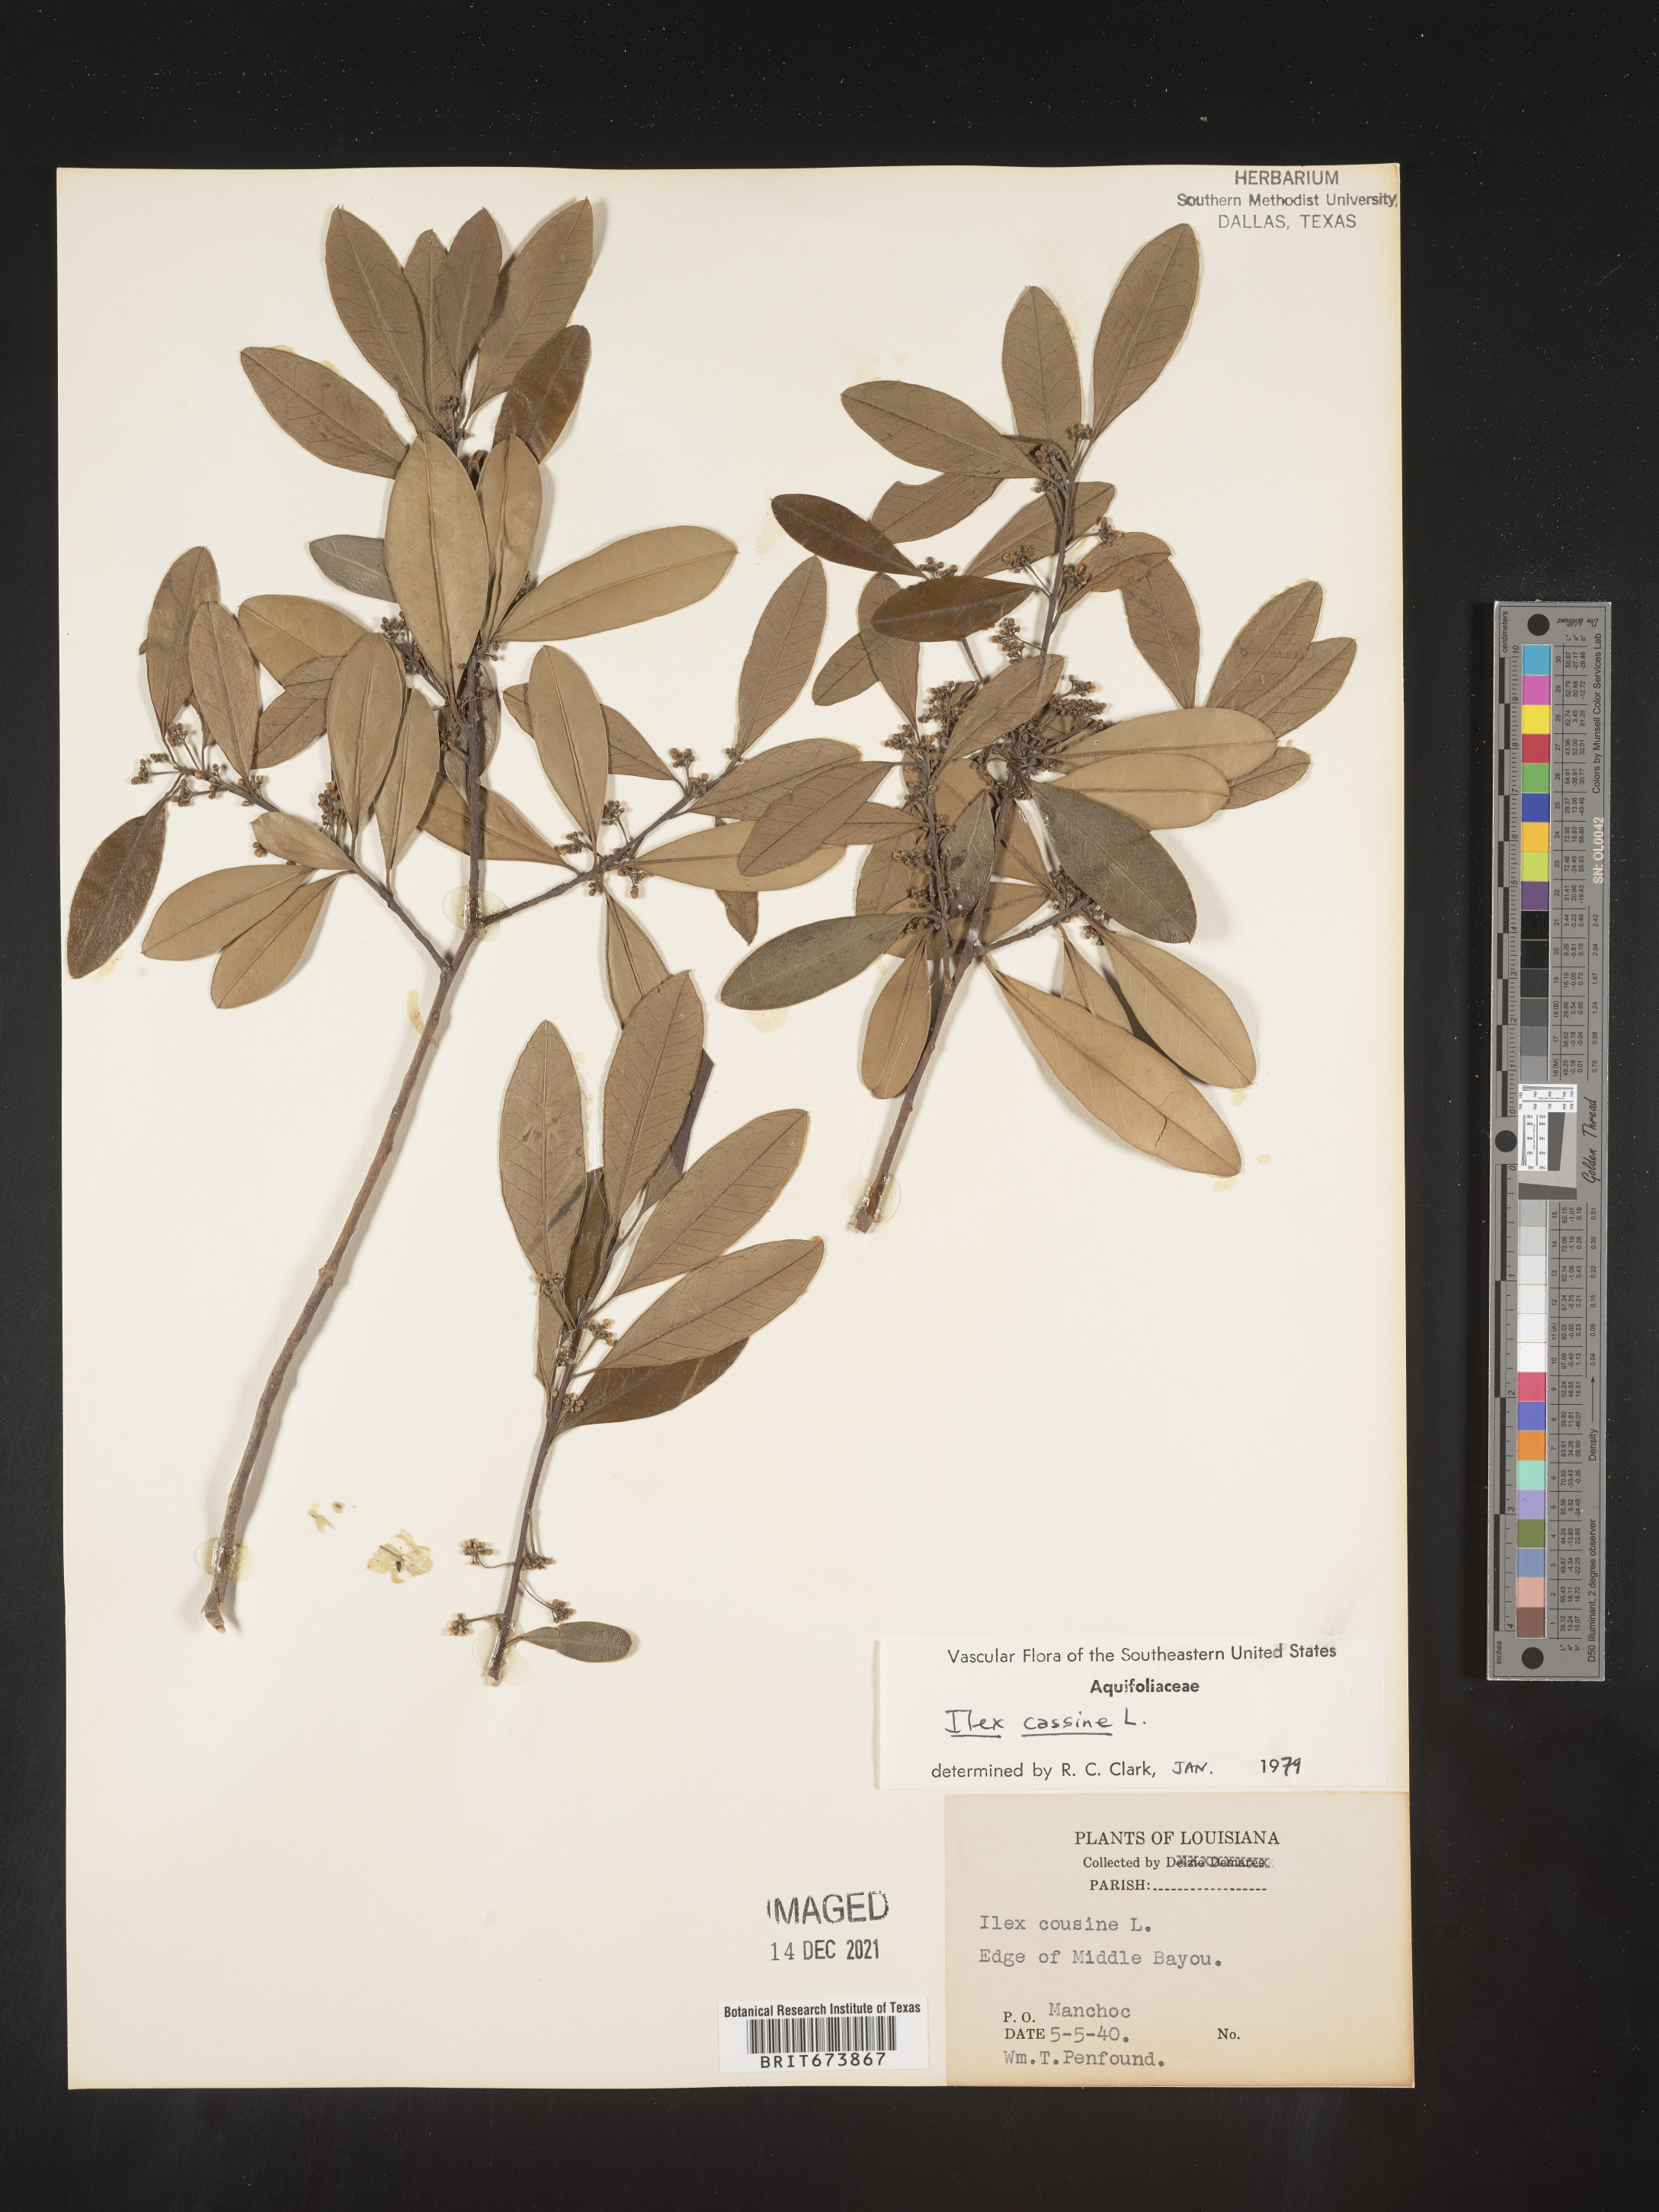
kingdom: Plantae
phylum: Tracheophyta
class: Magnoliopsida
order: Aquifoliales
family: Aquifoliaceae
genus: Ilex
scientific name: Ilex cassine
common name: Dahoon
